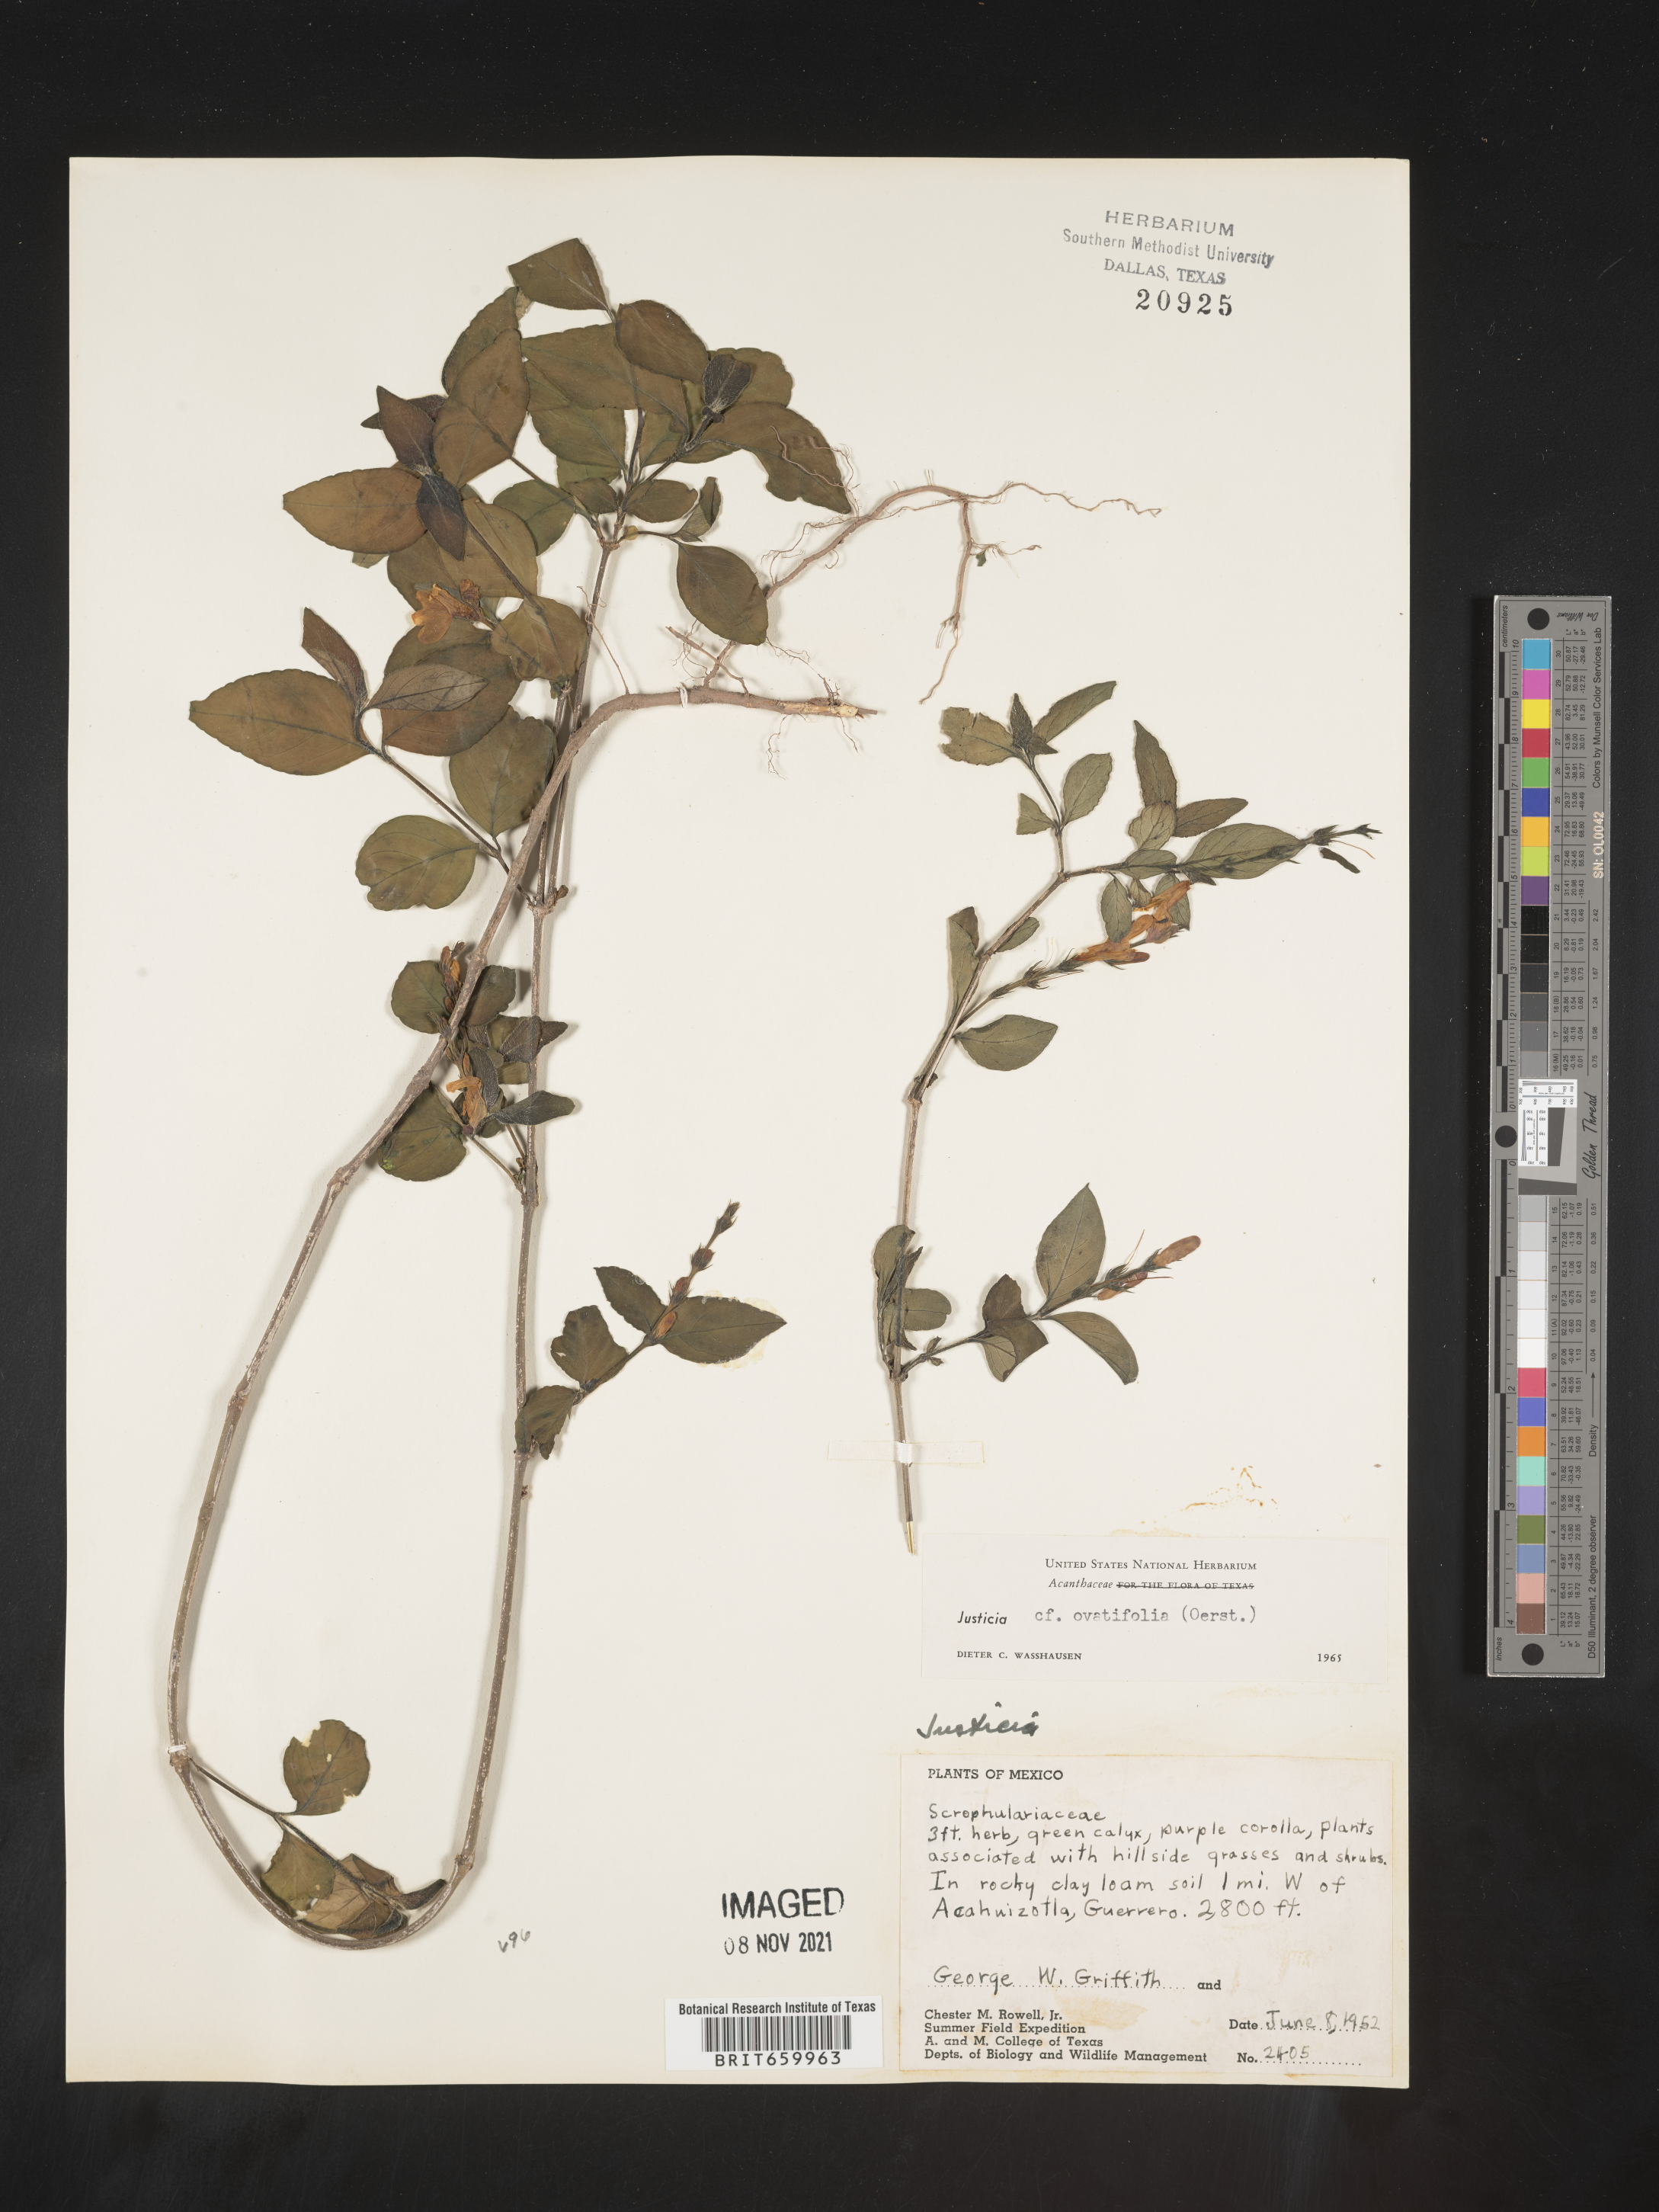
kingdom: Plantae
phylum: Tracheophyta
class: Magnoliopsida
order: Lamiales
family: Acanthaceae
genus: Justicia
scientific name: Justicia
